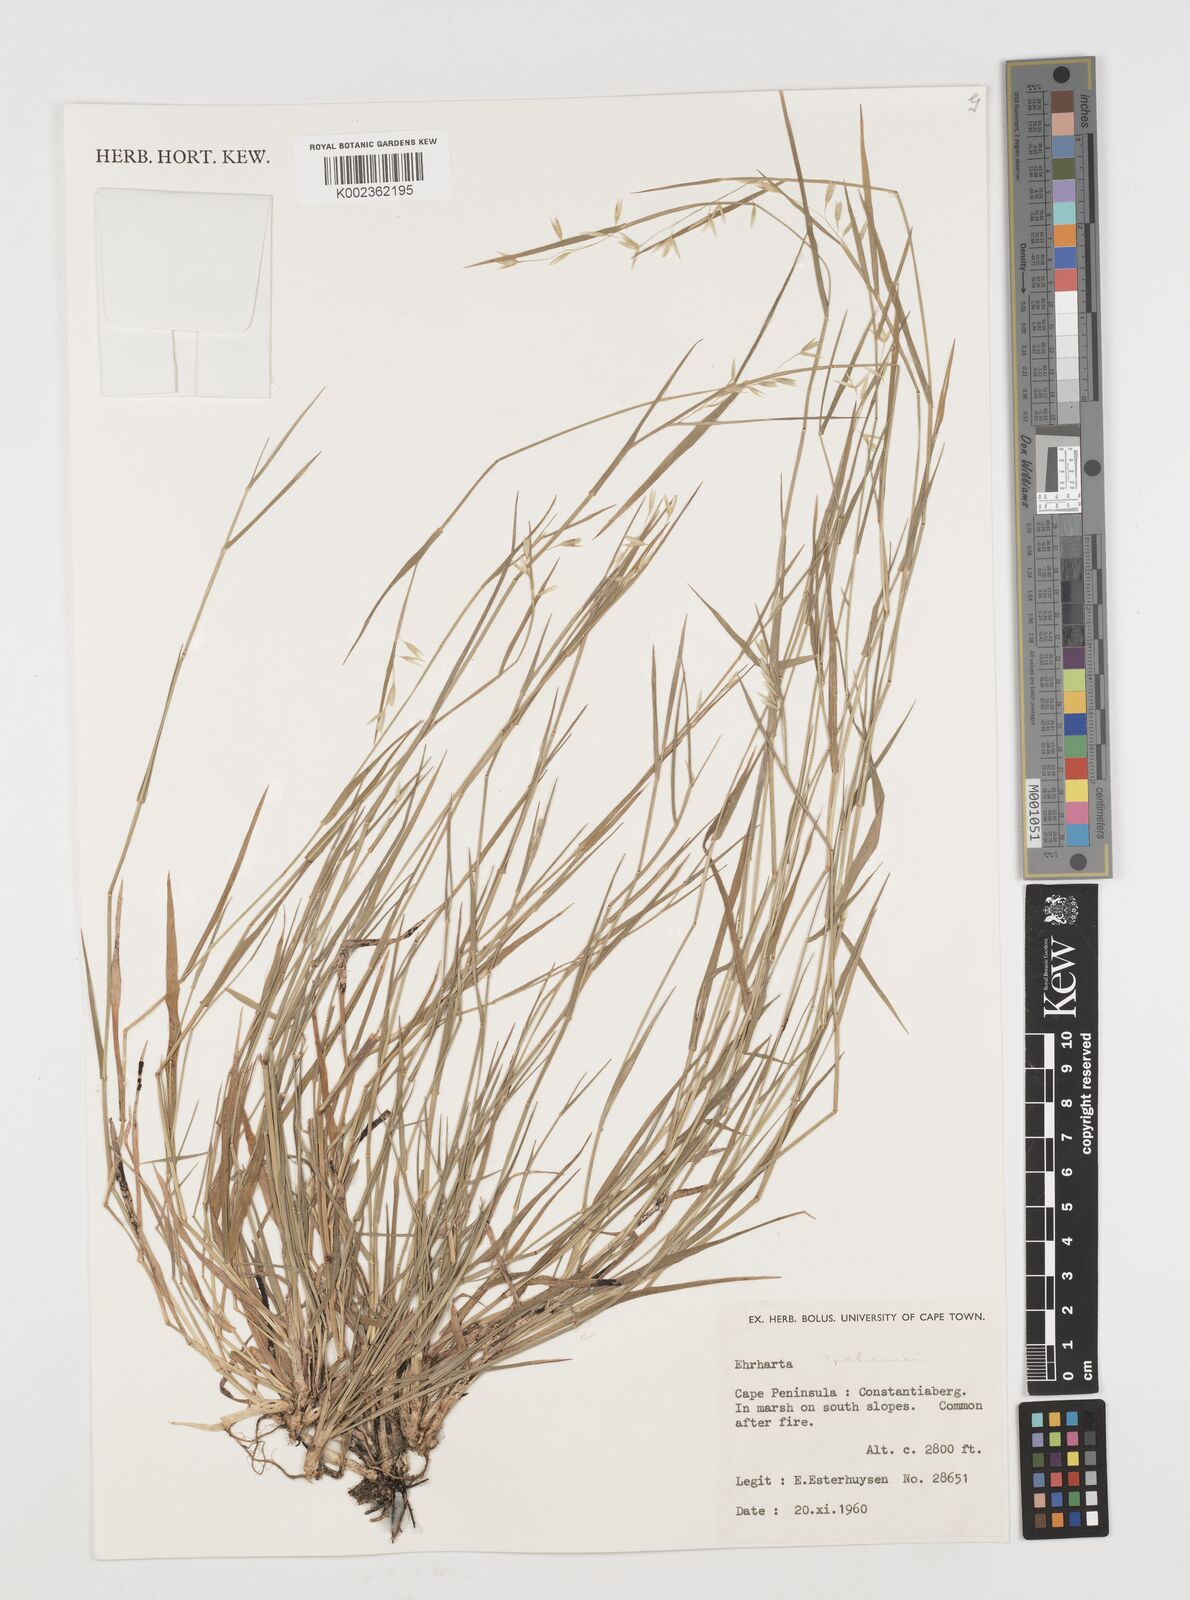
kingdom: Plantae
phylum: Tracheophyta
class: Liliopsida
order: Poales
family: Poaceae
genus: Ehrharta
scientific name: Ehrharta
